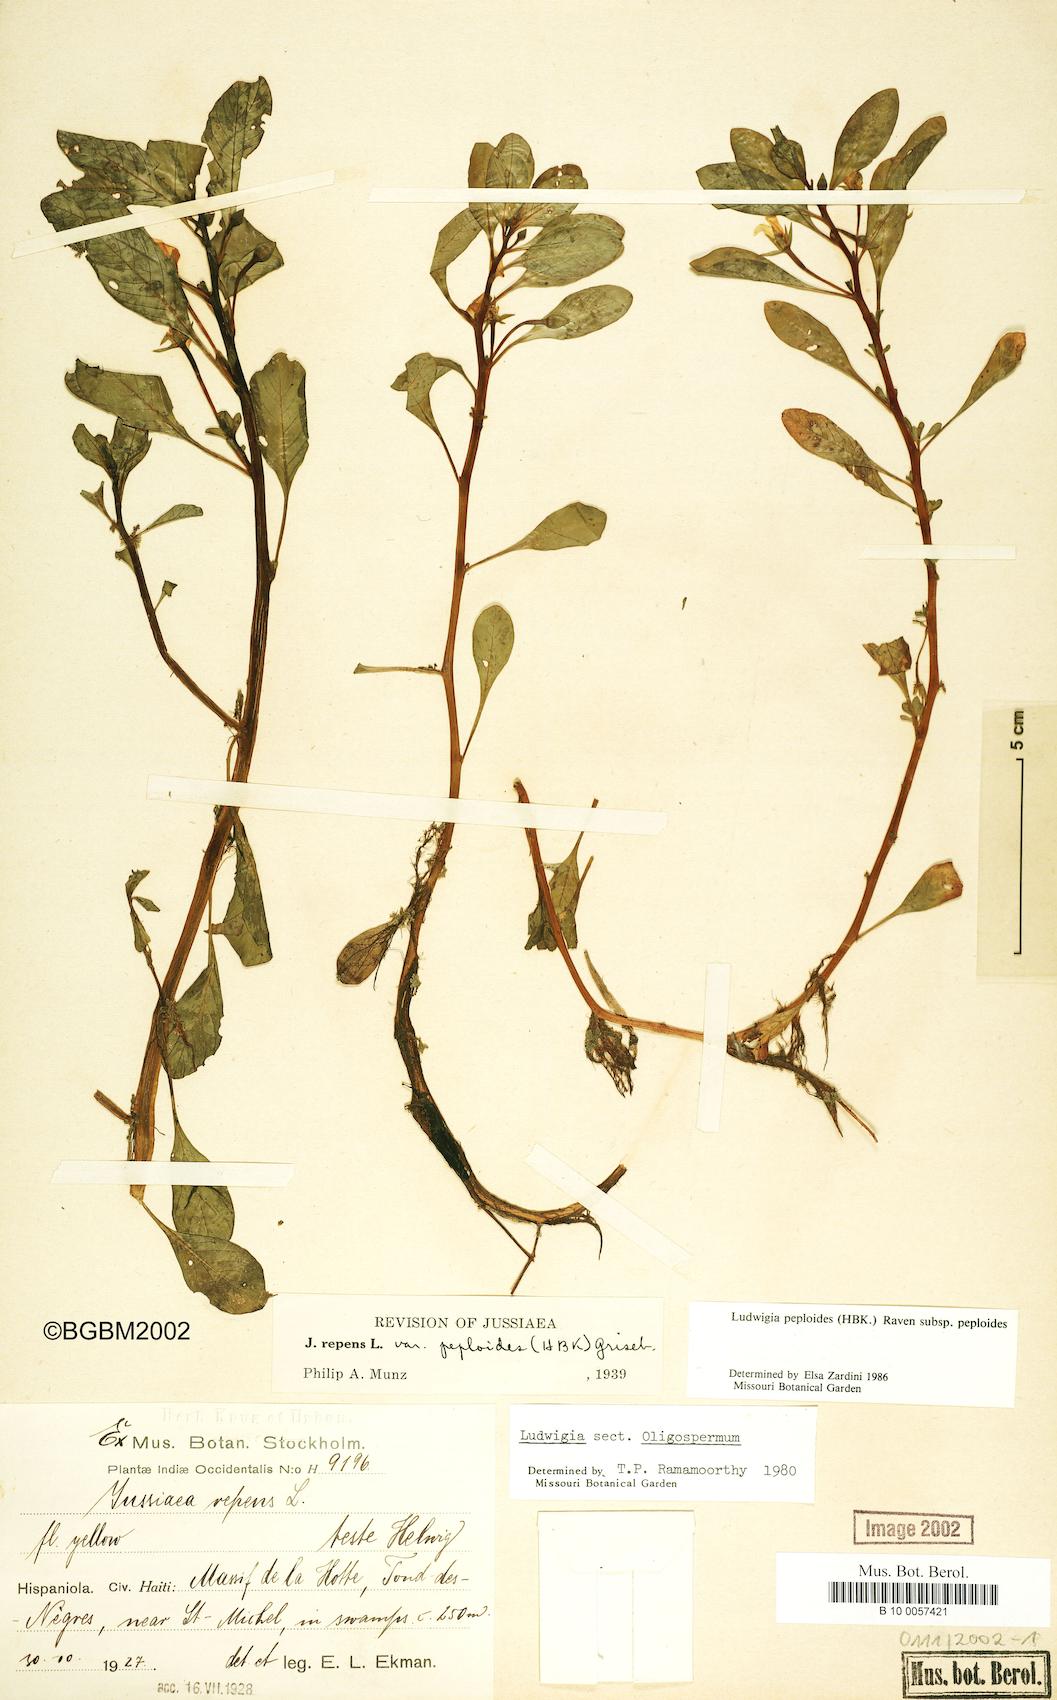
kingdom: Plantae
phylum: Tracheophyta
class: Magnoliopsida
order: Myrtales
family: Onagraceae
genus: Ludwigia
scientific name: Ludwigia peploides
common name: Floating primrose-willow
